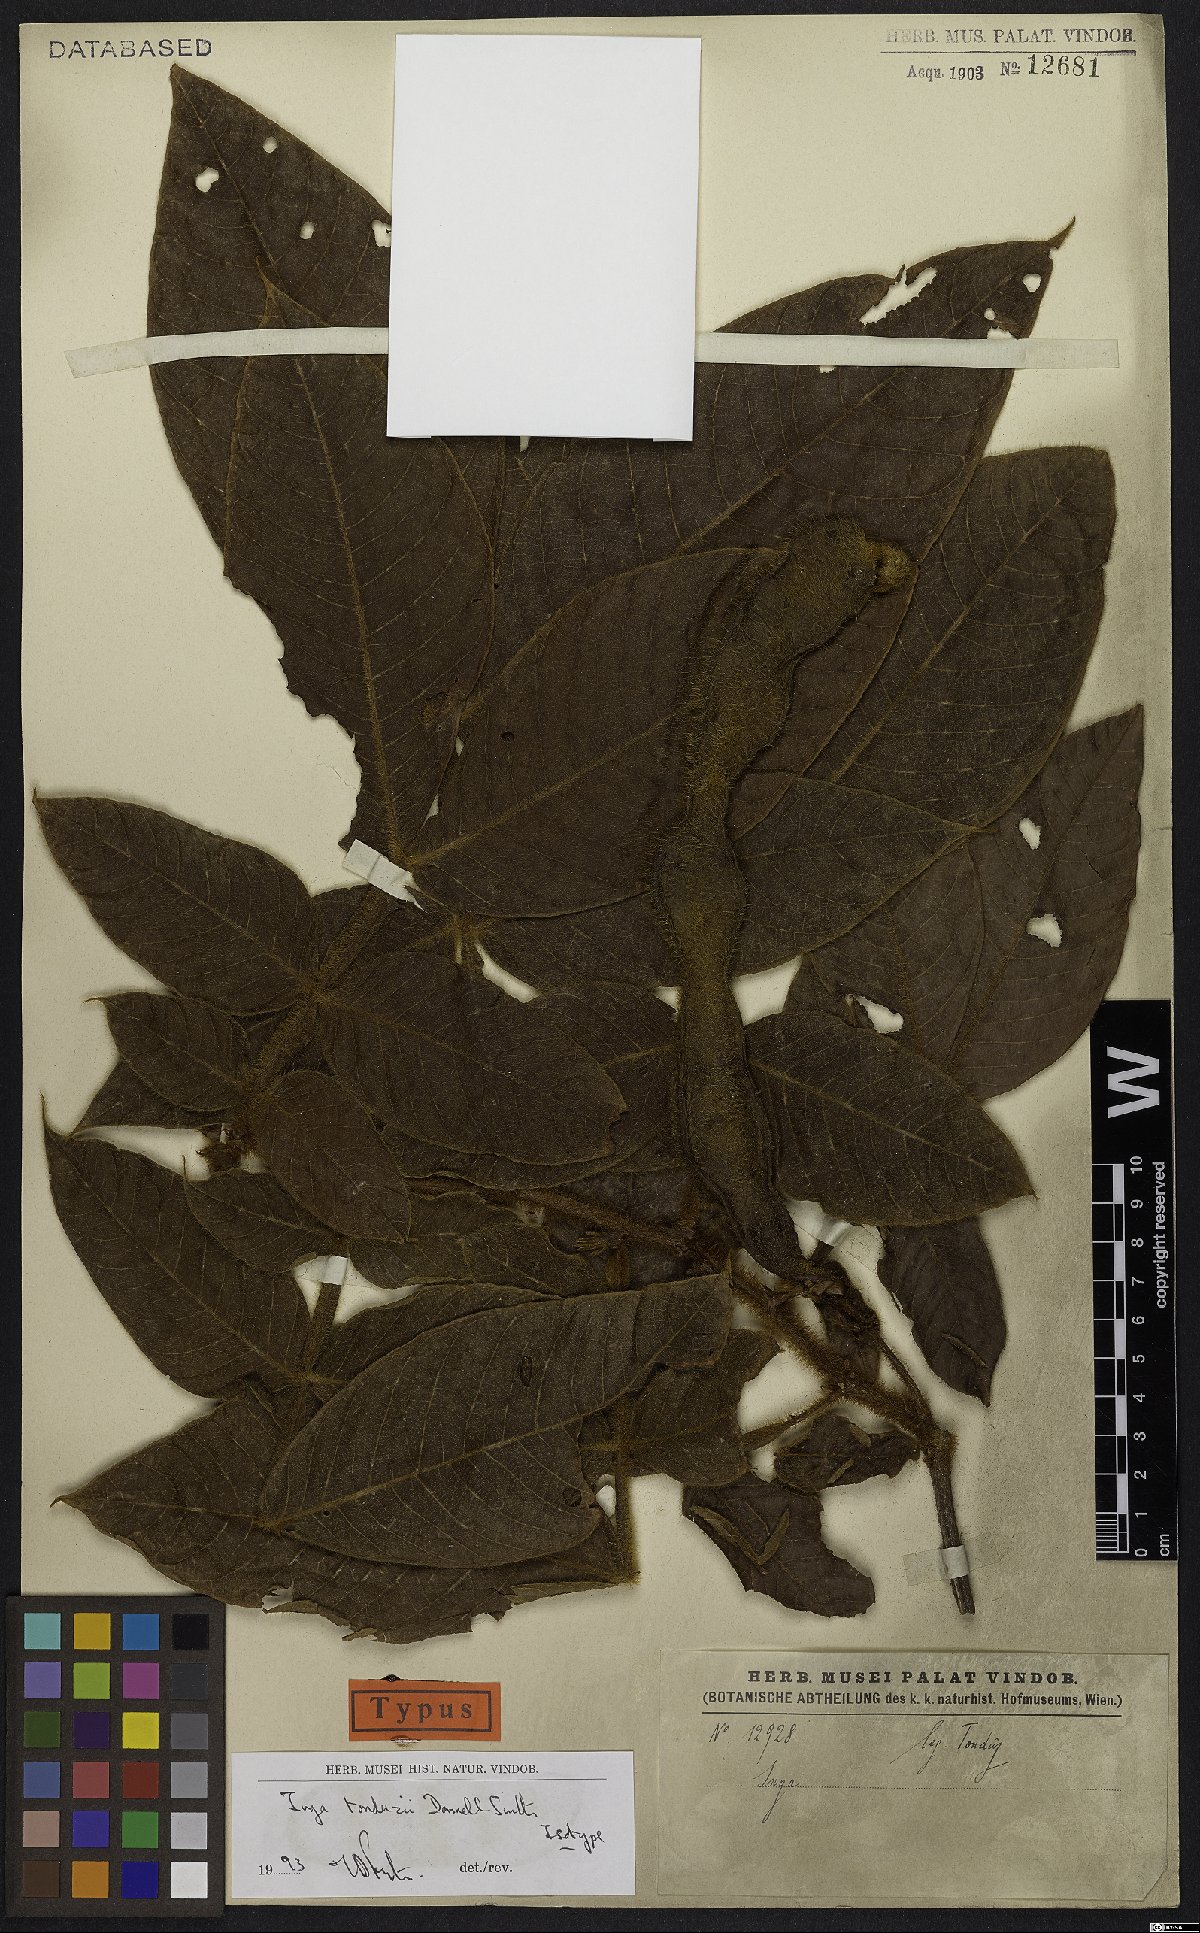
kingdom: Plantae
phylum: Tracheophyta
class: Magnoliopsida
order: Fabales
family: Fabaceae
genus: Inga
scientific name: Inga tonduzii
